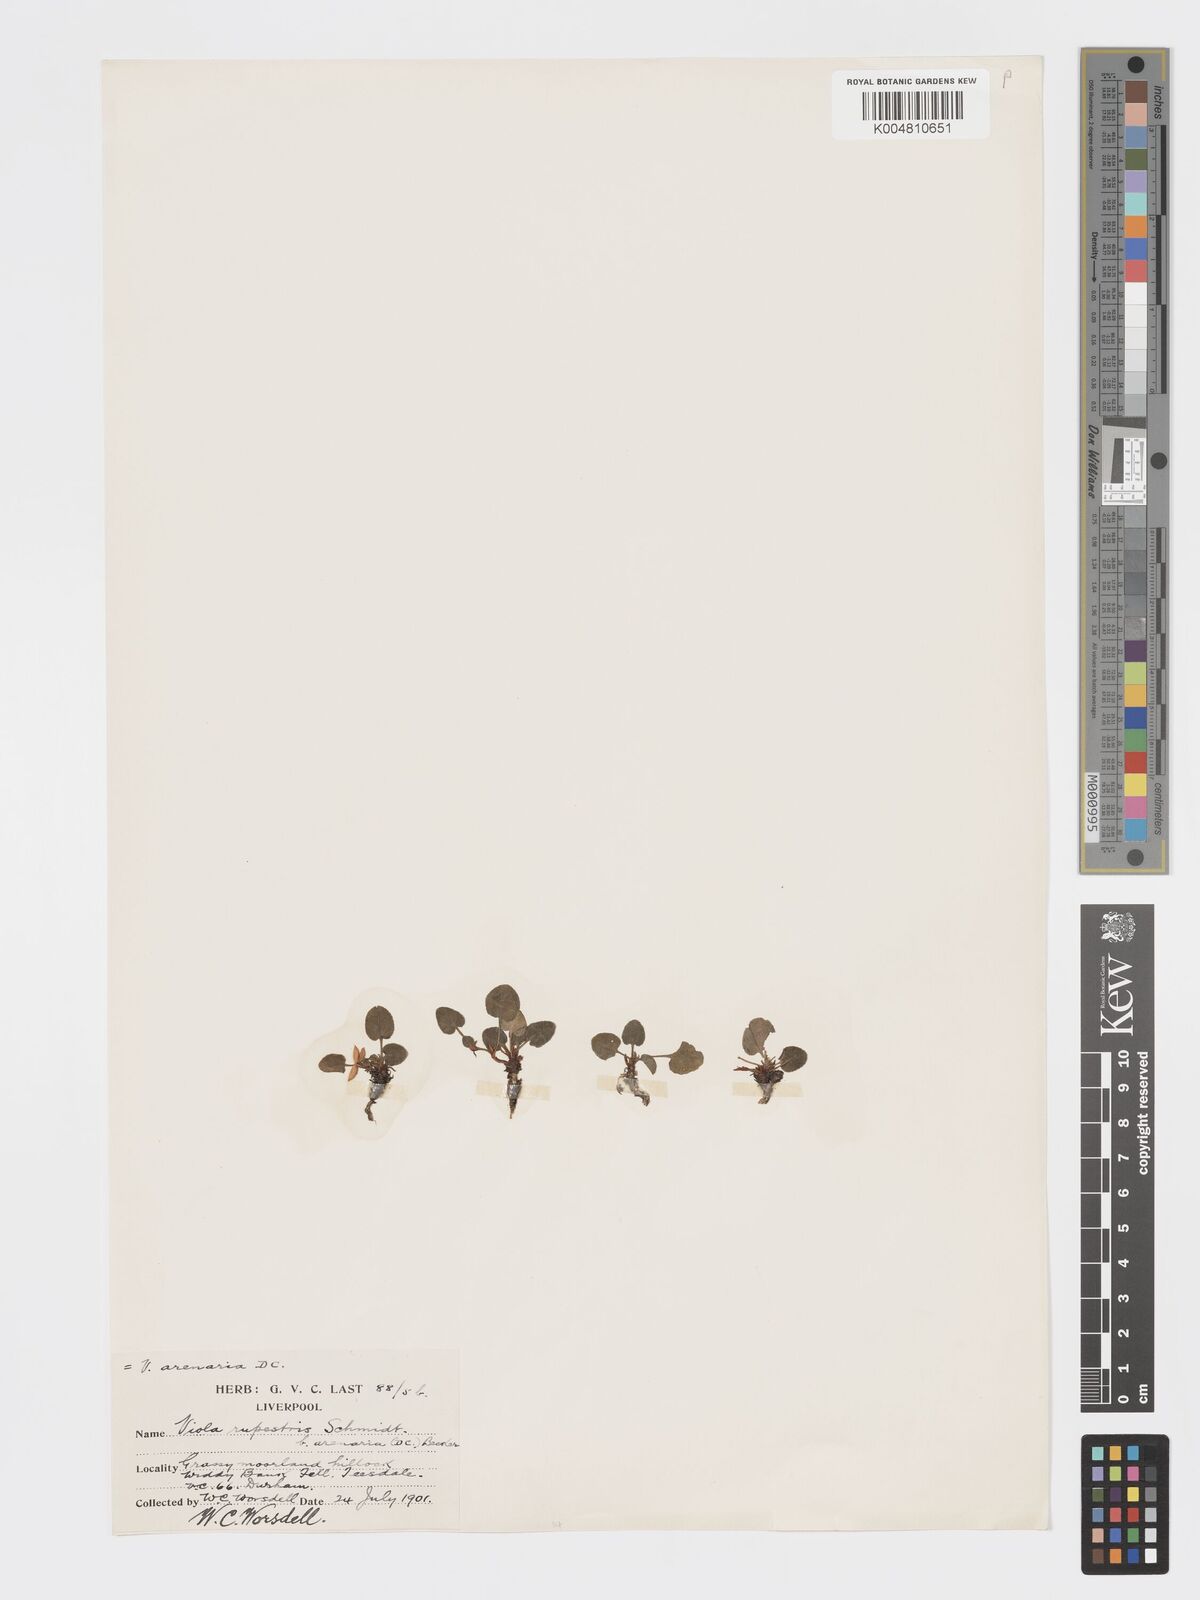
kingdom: Plantae
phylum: Tracheophyta
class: Magnoliopsida
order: Malpighiales
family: Violaceae
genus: Viola
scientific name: Viola rupestris
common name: Teesdale violet
